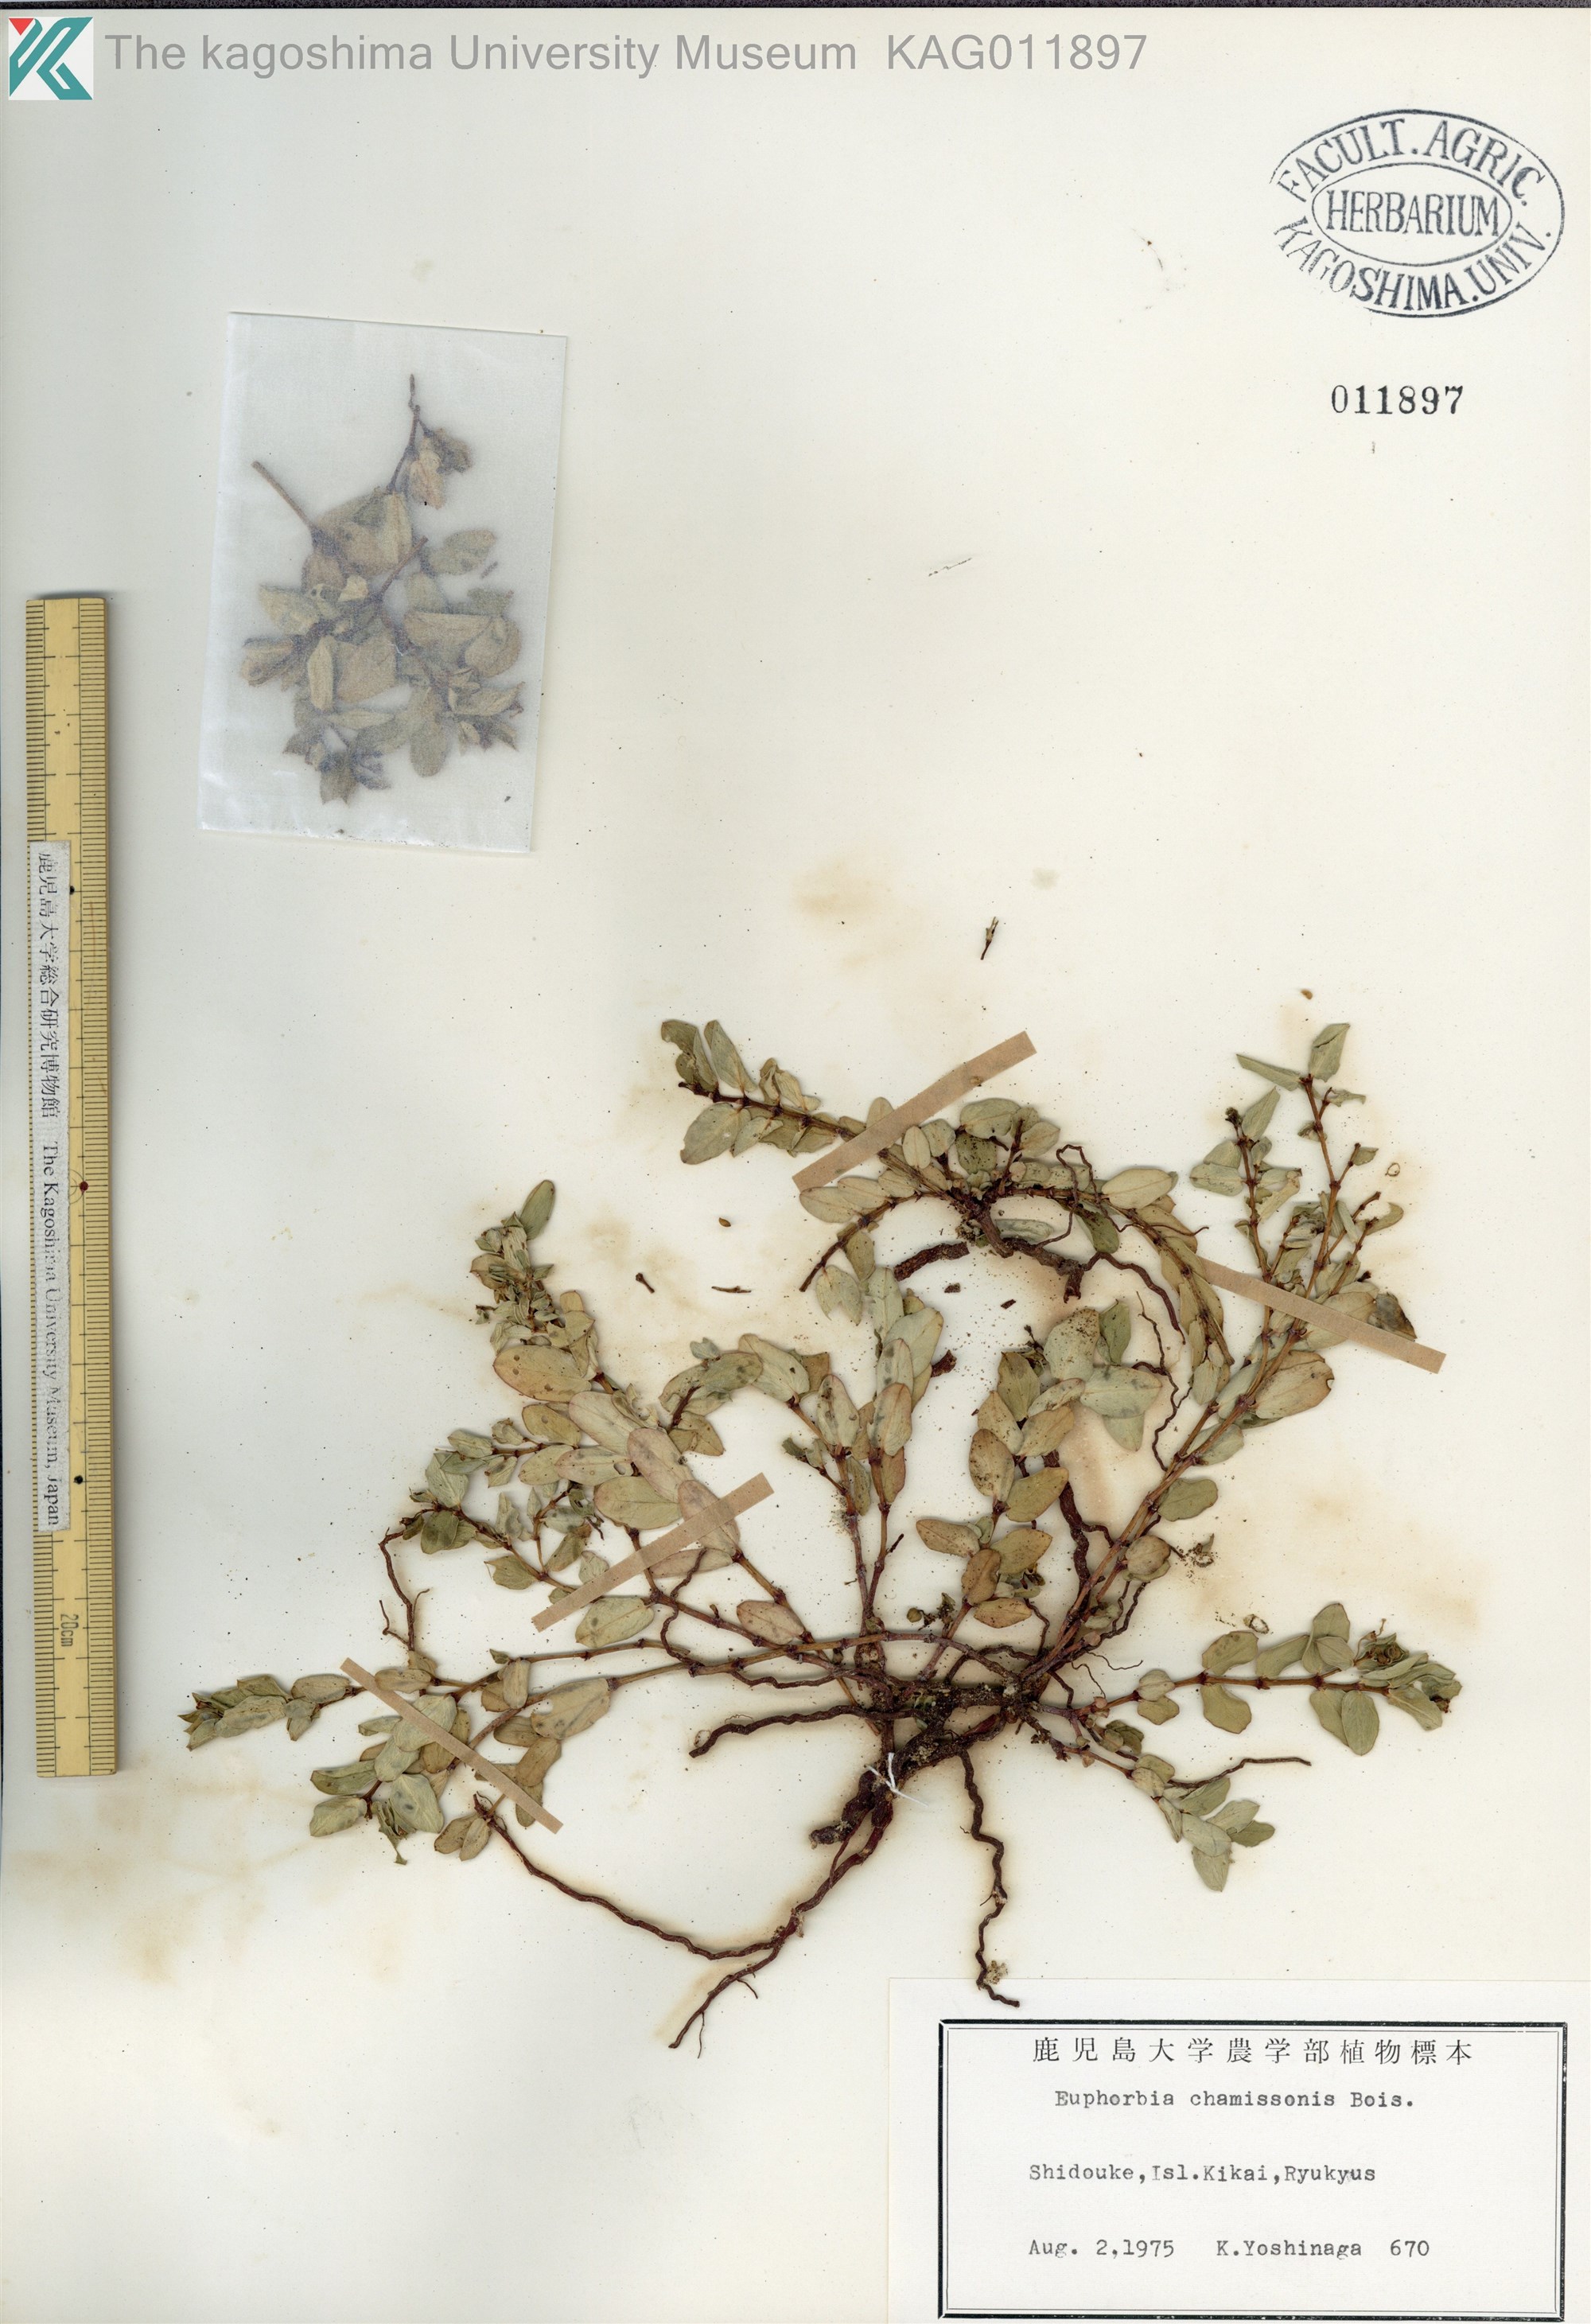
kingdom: Plantae
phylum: Tracheophyta
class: Magnoliopsida
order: Malpighiales
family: Euphorbiaceae
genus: Euphorbia
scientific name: Euphorbia chamissonis
